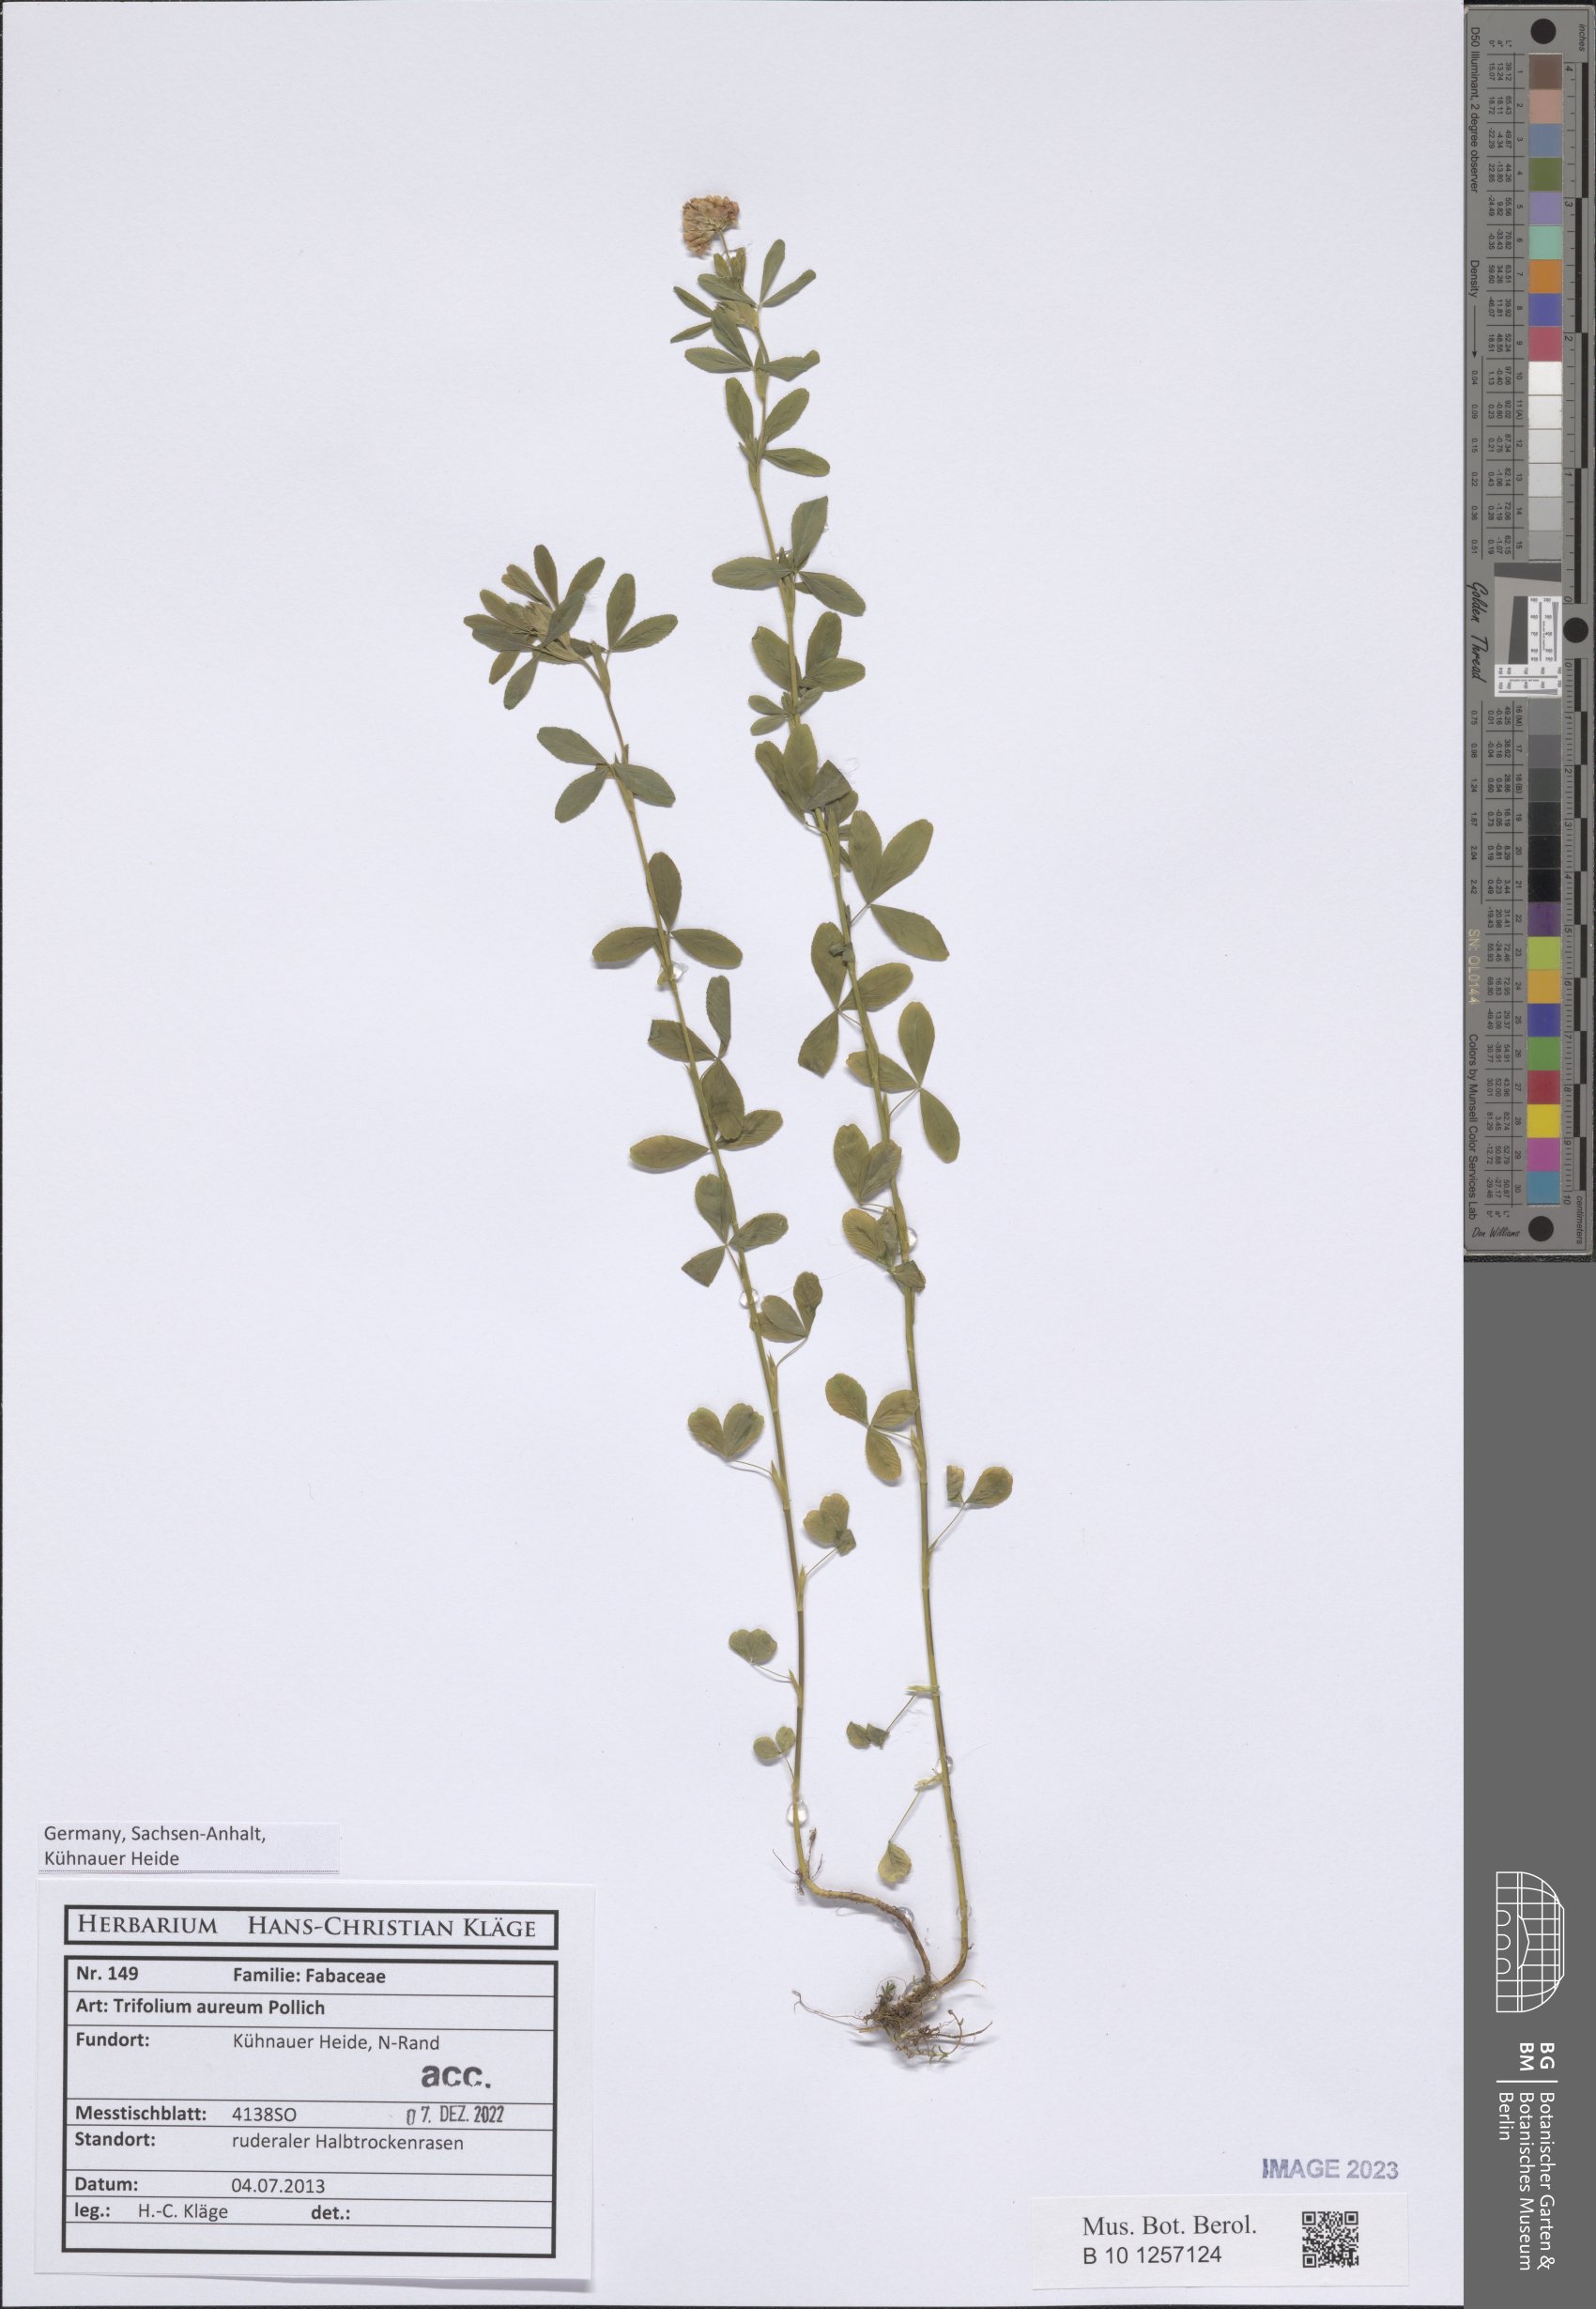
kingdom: Plantae
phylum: Tracheophyta
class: Magnoliopsida
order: Fabales
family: Fabaceae
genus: Trifolium
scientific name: Trifolium aureum
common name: Golden clover
